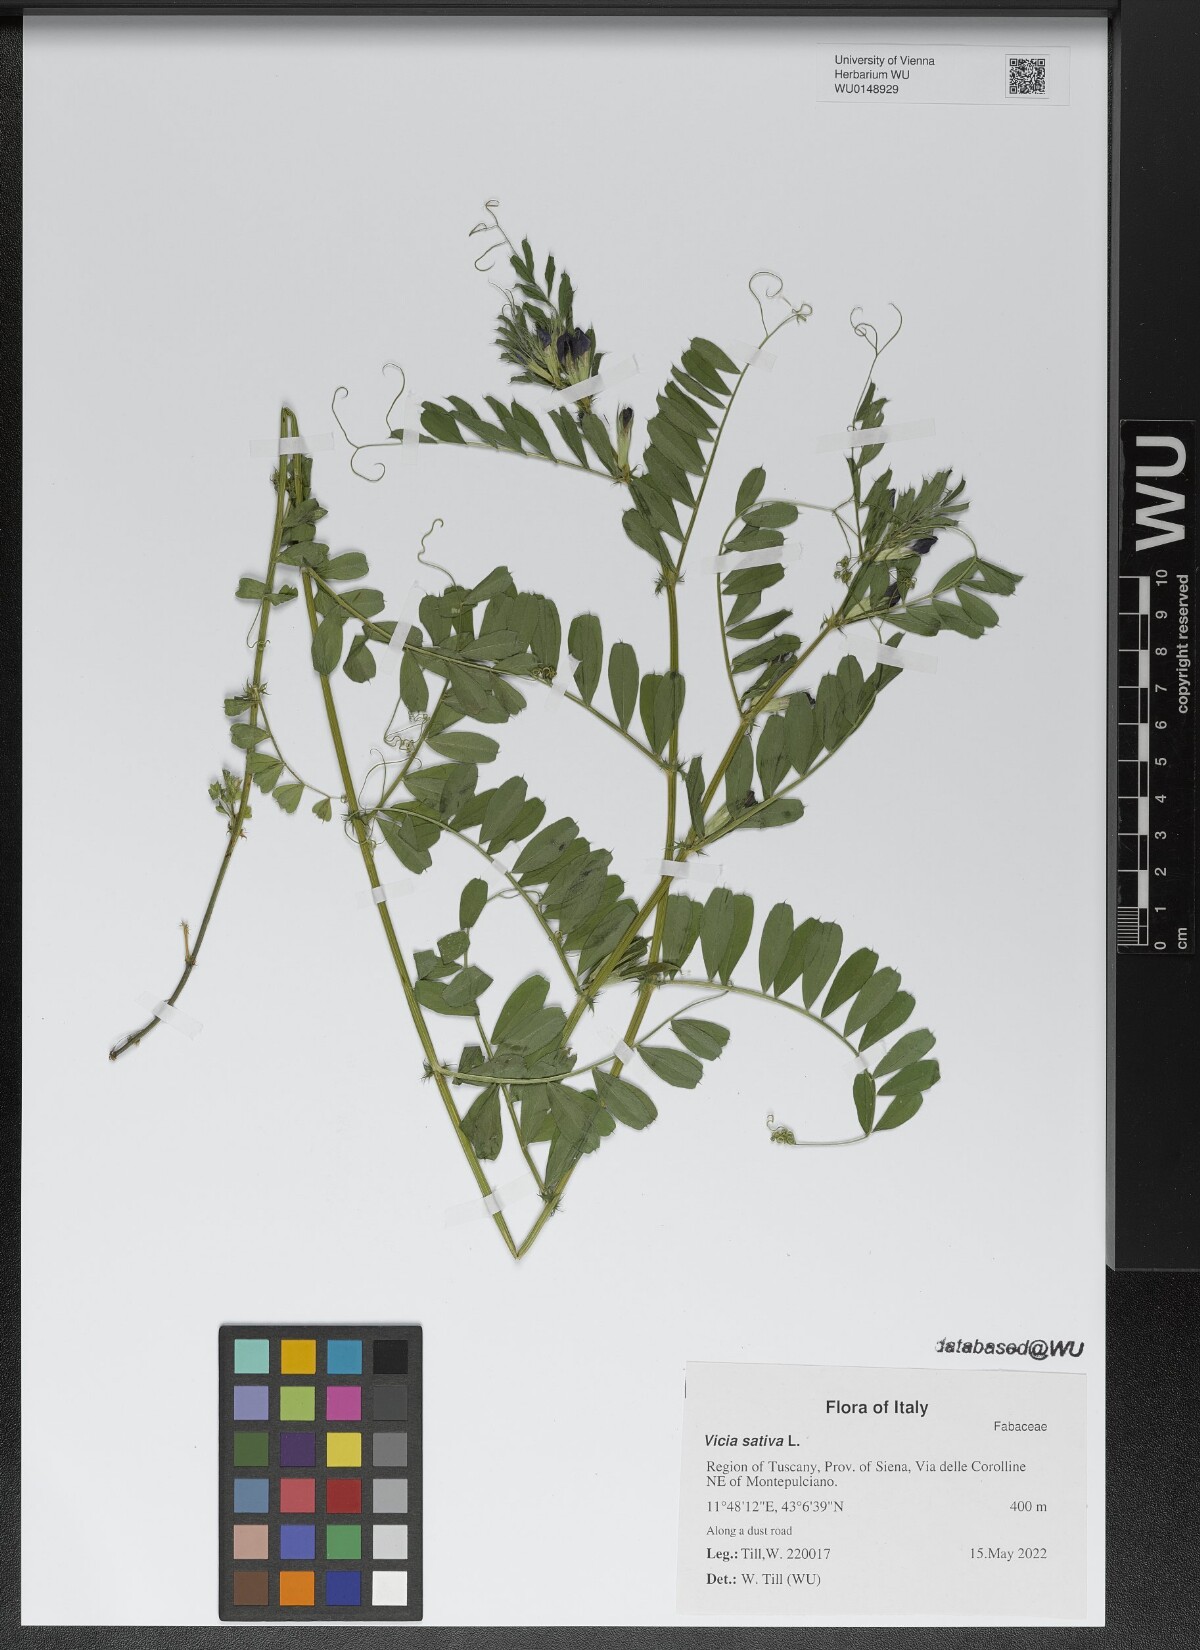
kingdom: Plantae
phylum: Tracheophyta
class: Magnoliopsida
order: Fabales
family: Fabaceae
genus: Vicia
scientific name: Vicia sativa
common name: Garden vetch
